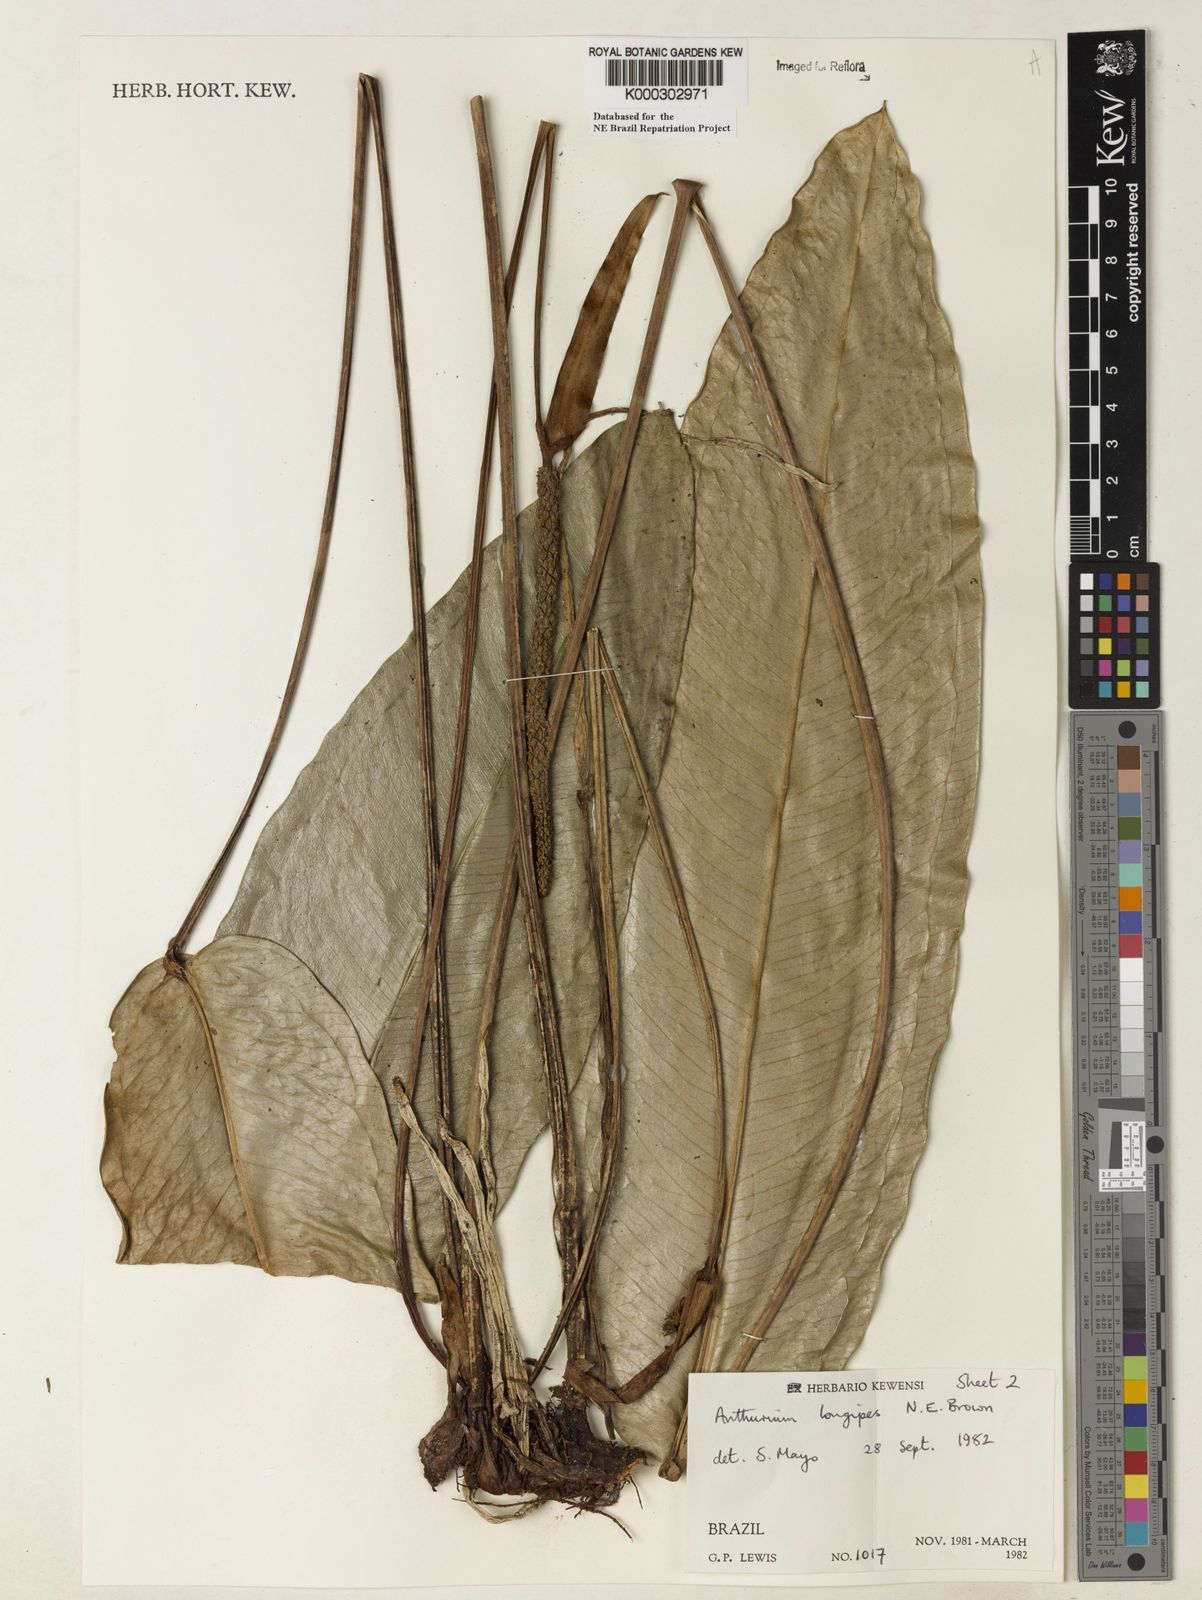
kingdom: Plantae
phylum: Tracheophyta
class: Liliopsida
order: Alismatales
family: Araceae
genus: Anthurium
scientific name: Anthurium longipes
